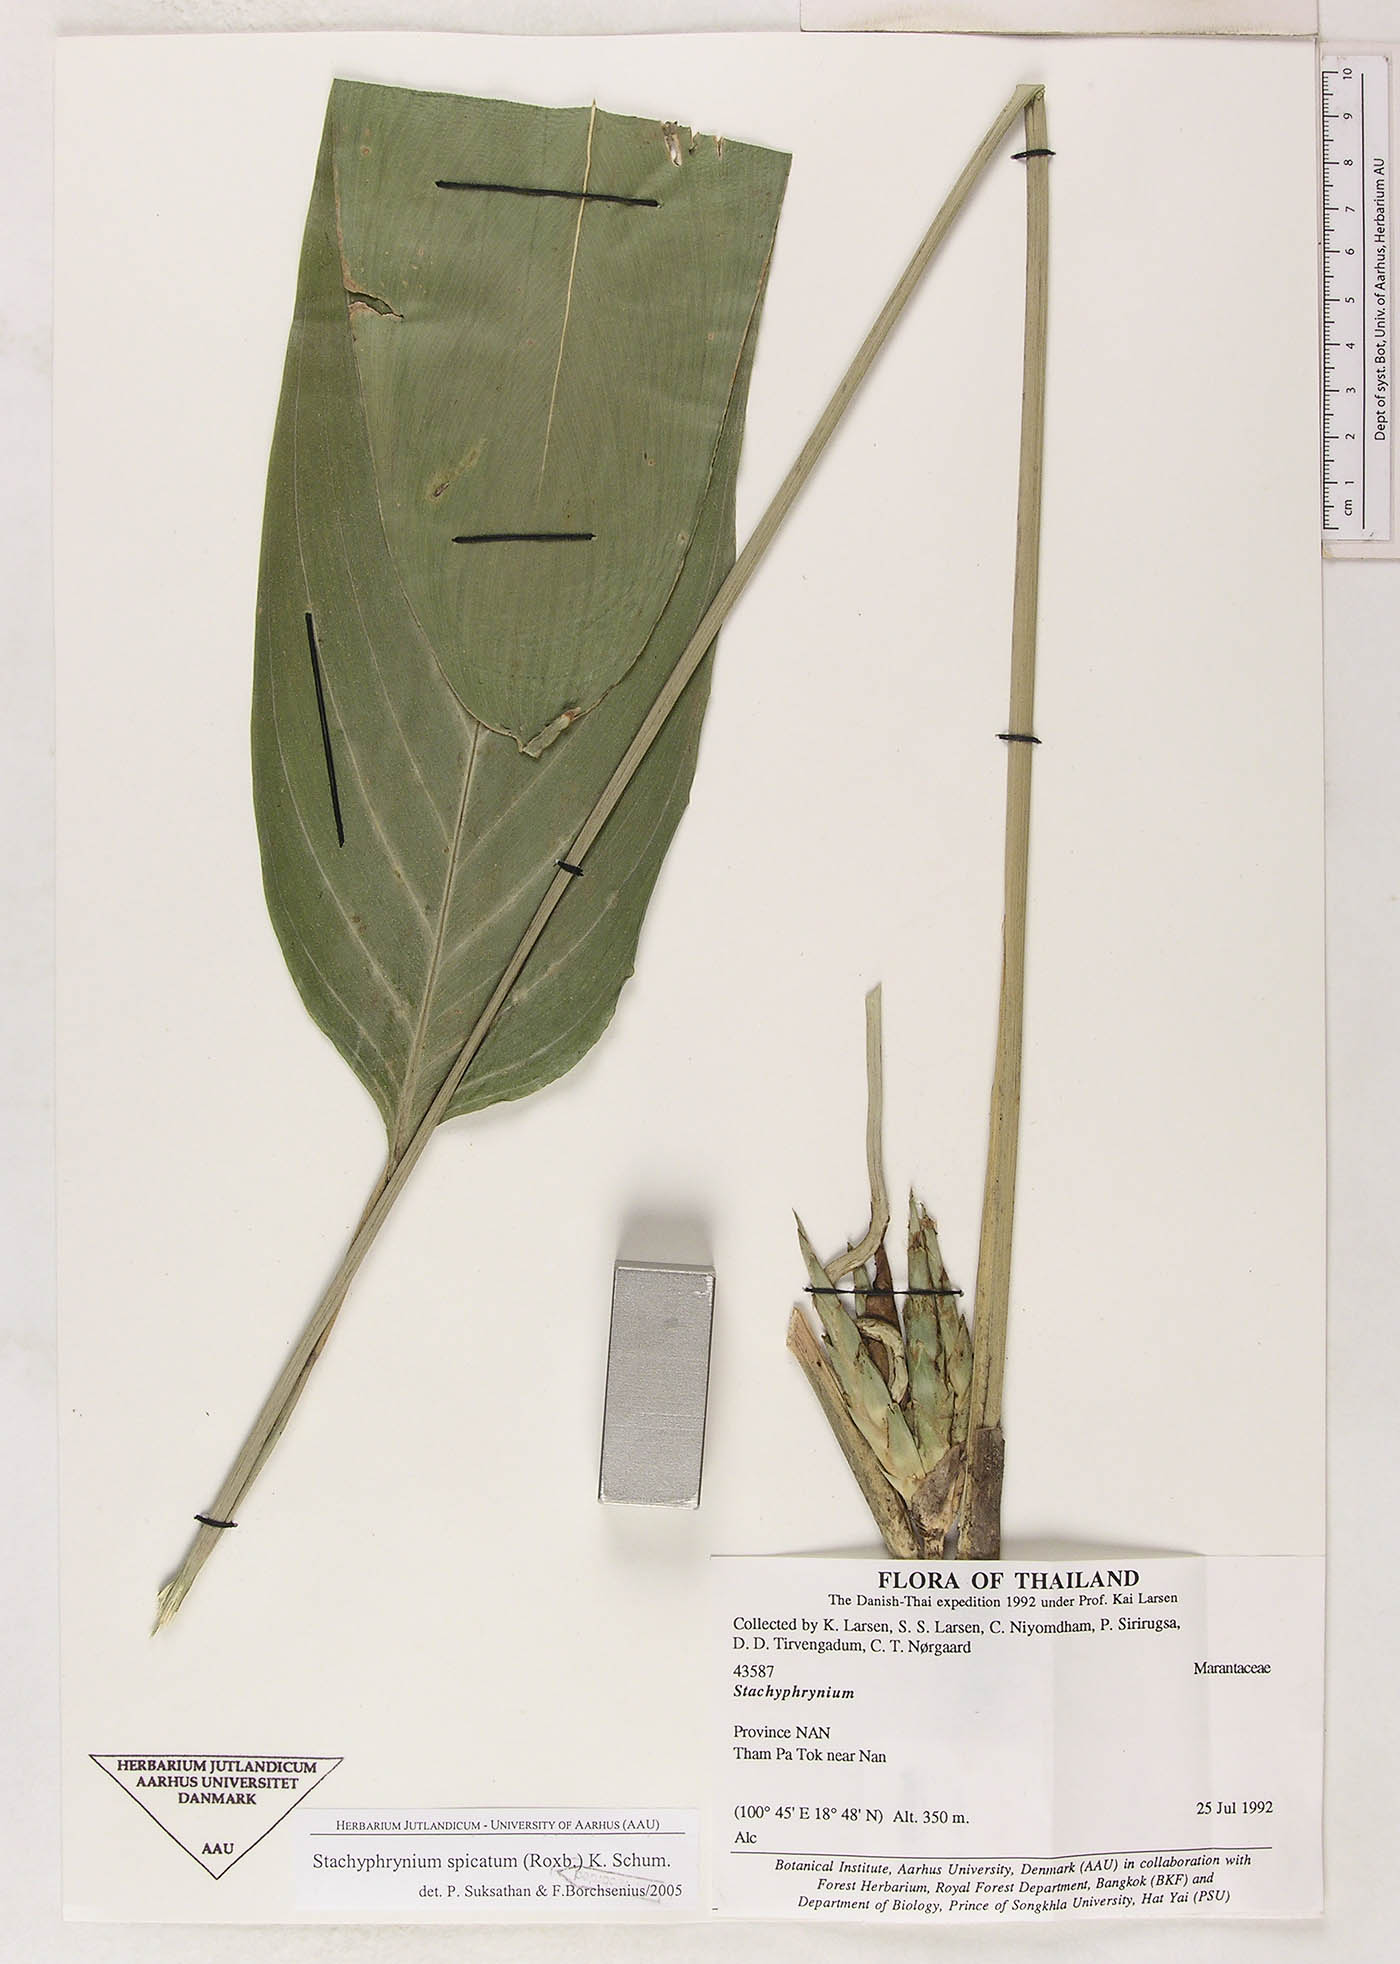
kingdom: Plantae
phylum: Tracheophyta
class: Liliopsida
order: Zingiberales
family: Marantaceae
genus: Stachyphrynium
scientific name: Stachyphrynium spicatum
